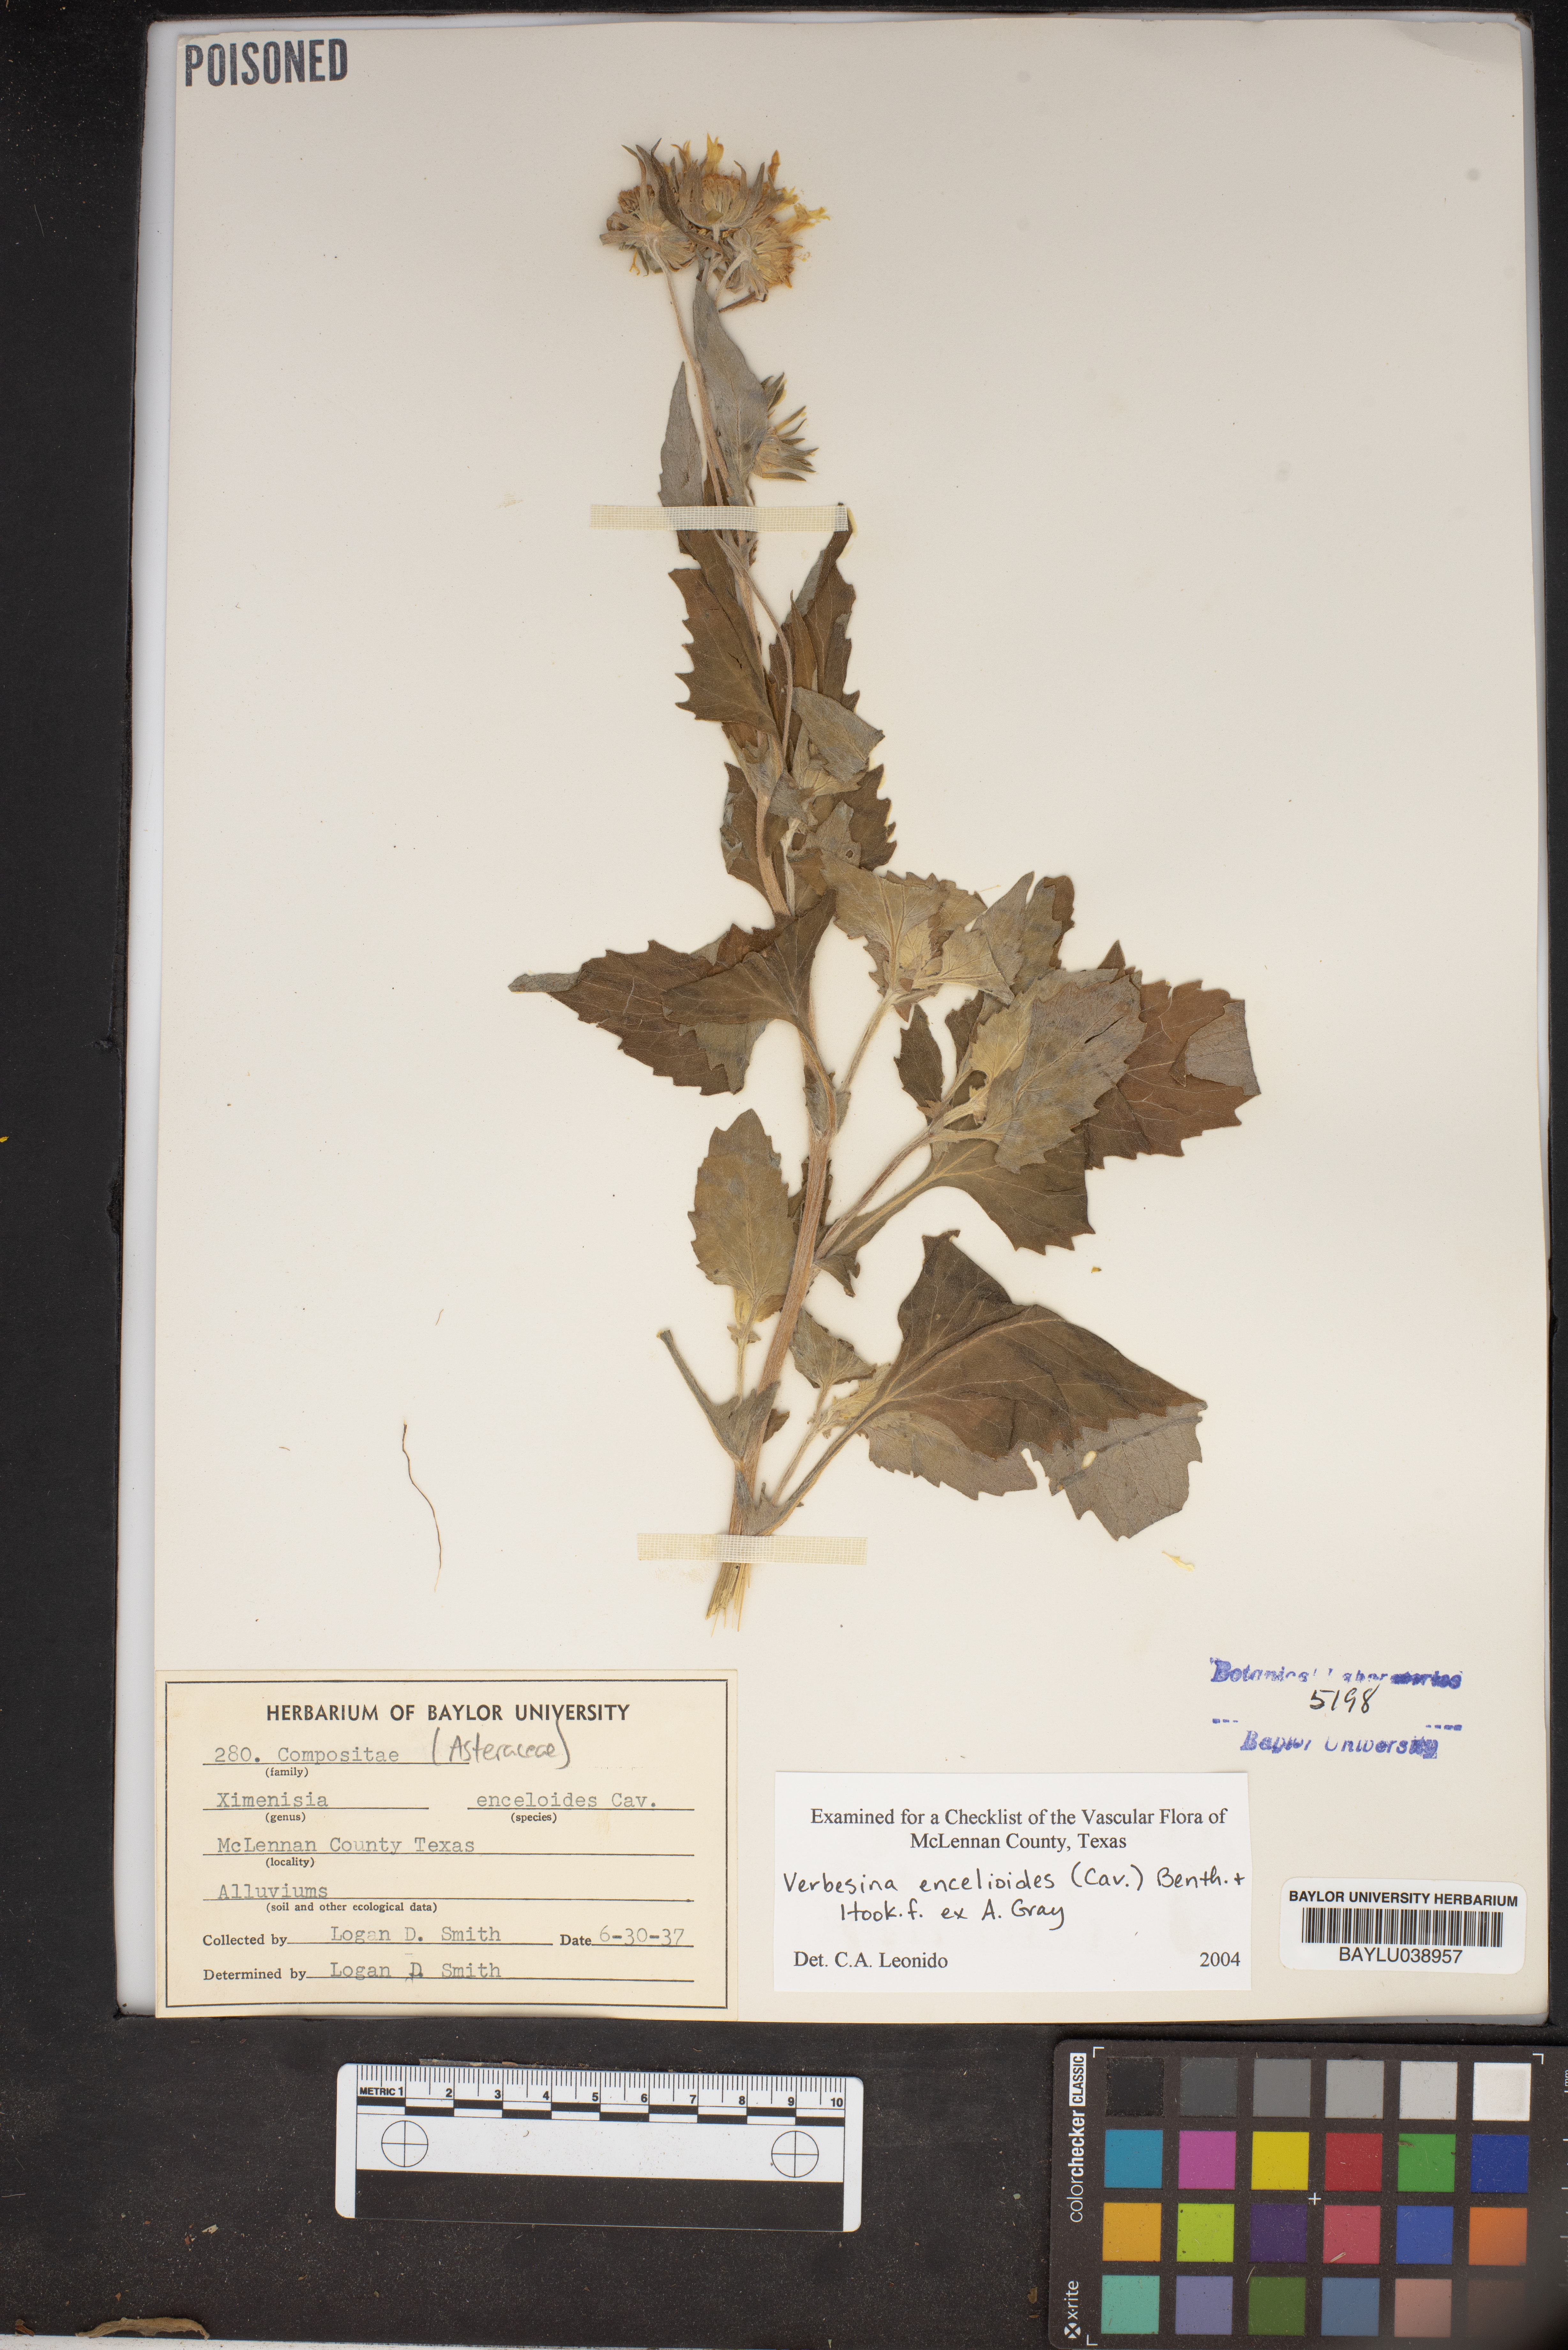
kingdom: Plantae
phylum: Tracheophyta
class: Magnoliopsida
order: Asterales
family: Asteraceae
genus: Verbesina
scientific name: Verbesina encelioides
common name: Golden crownbeard
